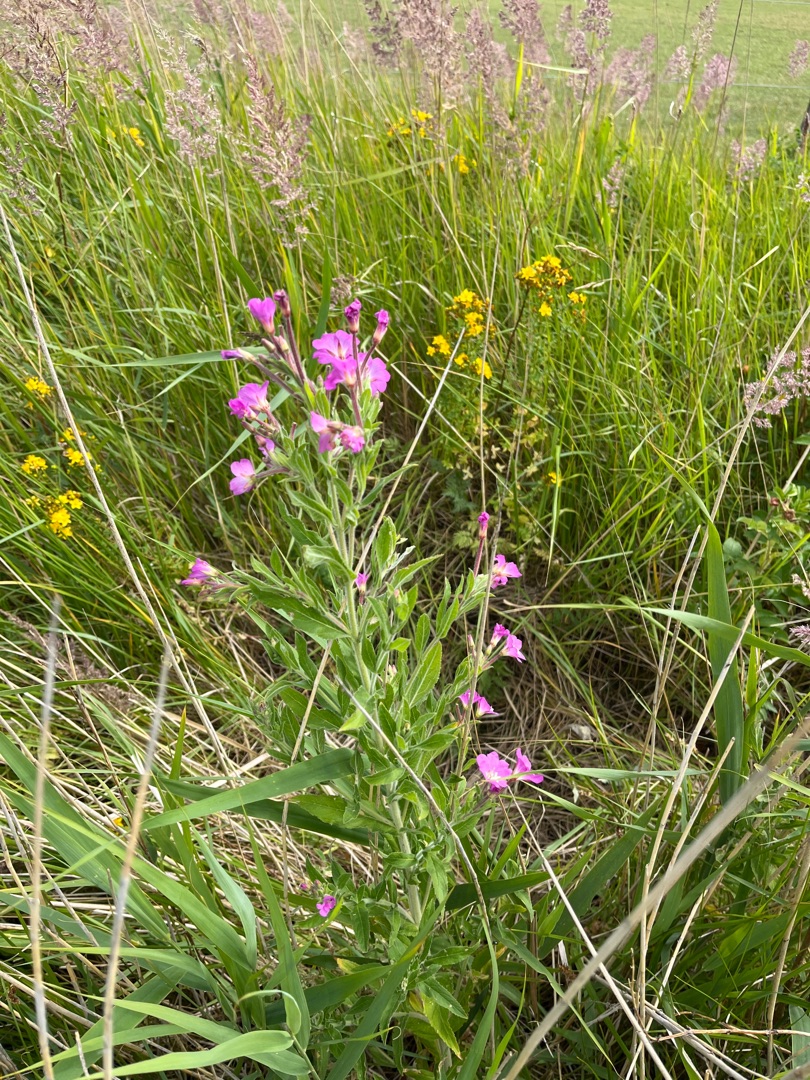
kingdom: Plantae
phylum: Tracheophyta
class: Magnoliopsida
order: Myrtales
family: Onagraceae
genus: Epilobium
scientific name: Epilobium hirsutum
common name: Lådden dueurt
